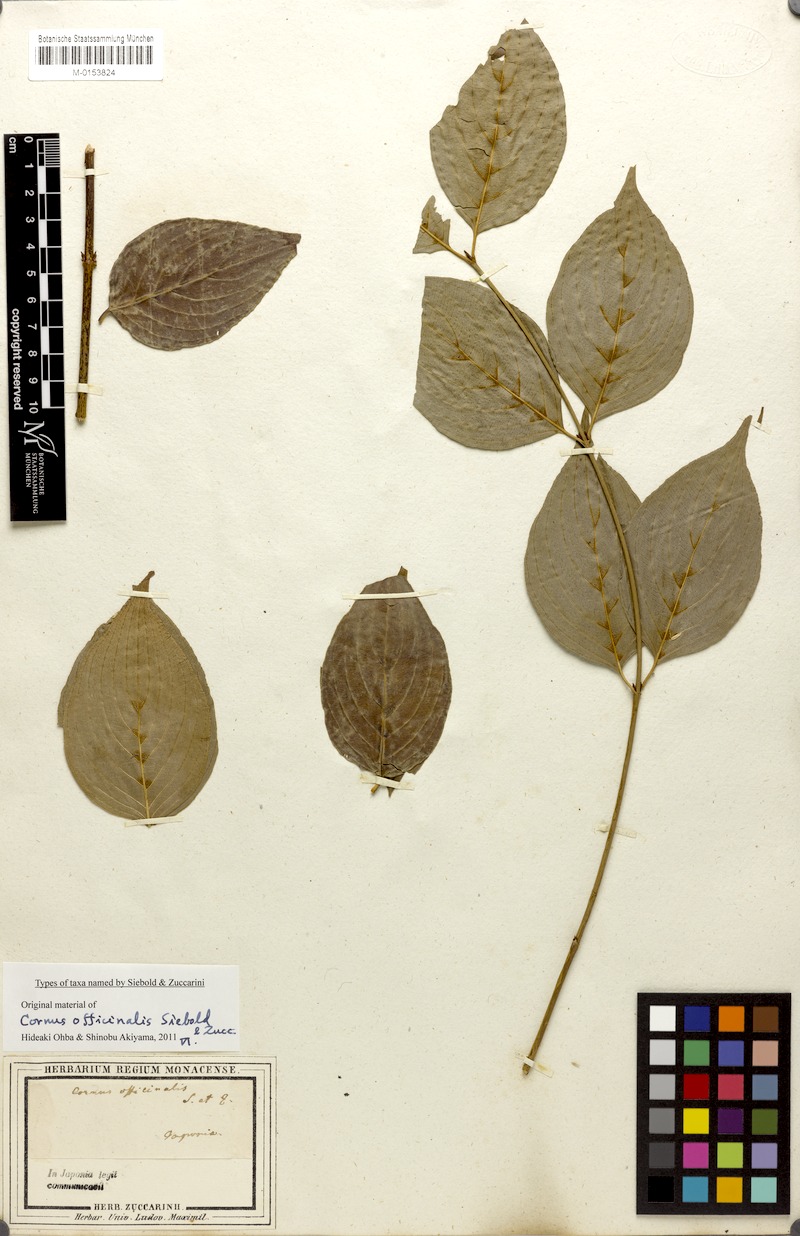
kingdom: Plantae
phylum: Tracheophyta
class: Magnoliopsida
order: Cornales
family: Cornaceae
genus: Cornus
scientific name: Cornus officinalis
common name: Asiatic dogwood
